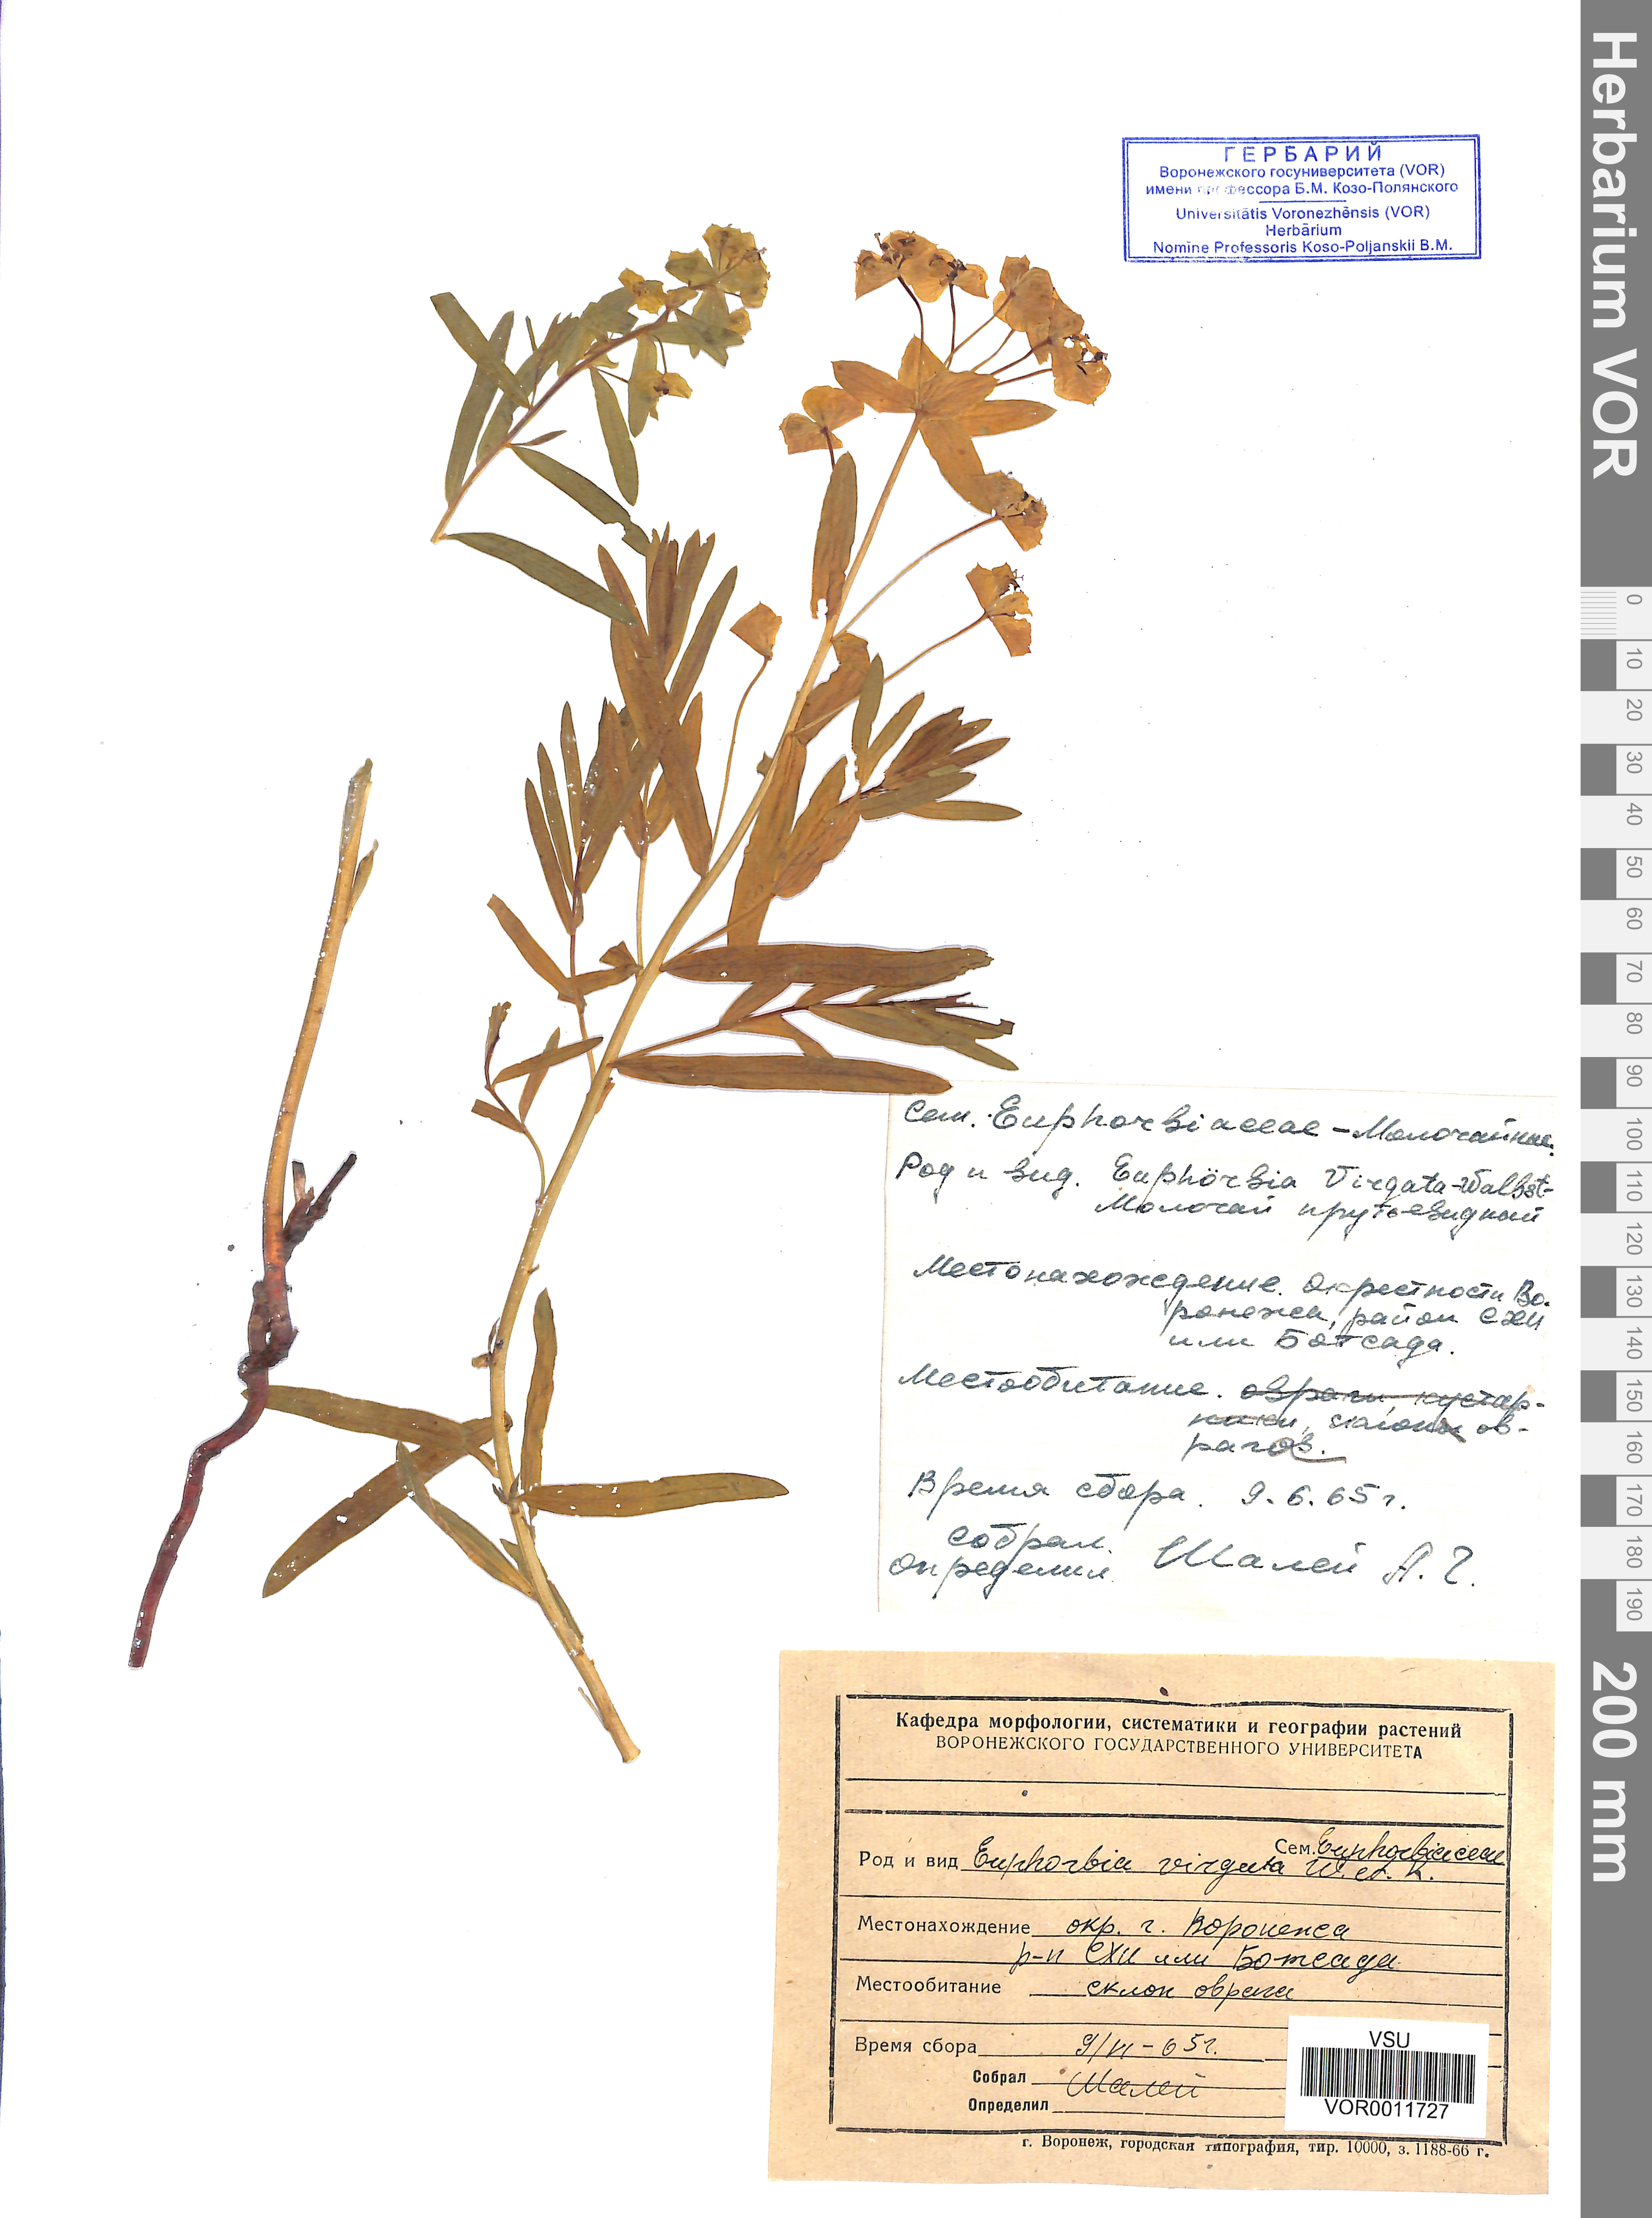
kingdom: Plantae
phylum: Tracheophyta
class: Magnoliopsida
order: Malpighiales
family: Euphorbiaceae
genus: Euphorbia
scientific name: Euphorbia virgata
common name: Leafy spurge
